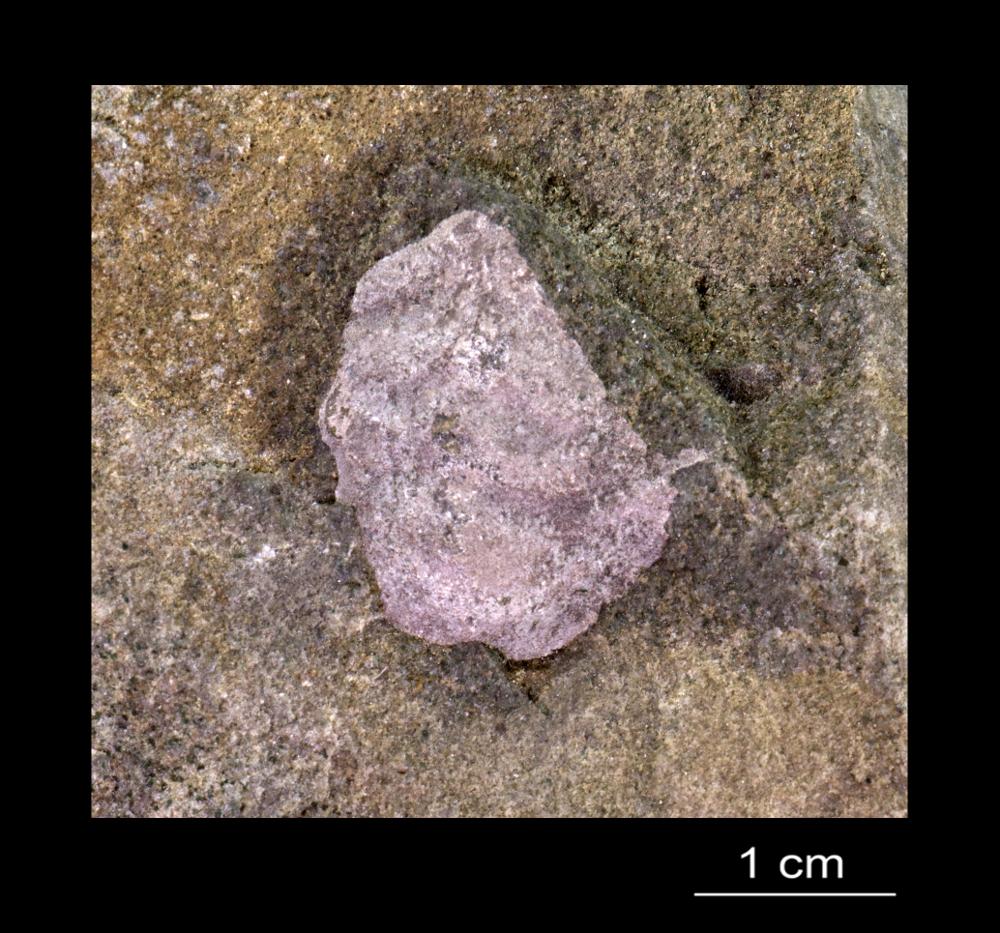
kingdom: Animalia
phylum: Arthropoda
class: Trilobita
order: Redlichiida
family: Holmiidae
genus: Schmidtiellus
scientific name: Schmidtiellus Olenellus mickwitzi
